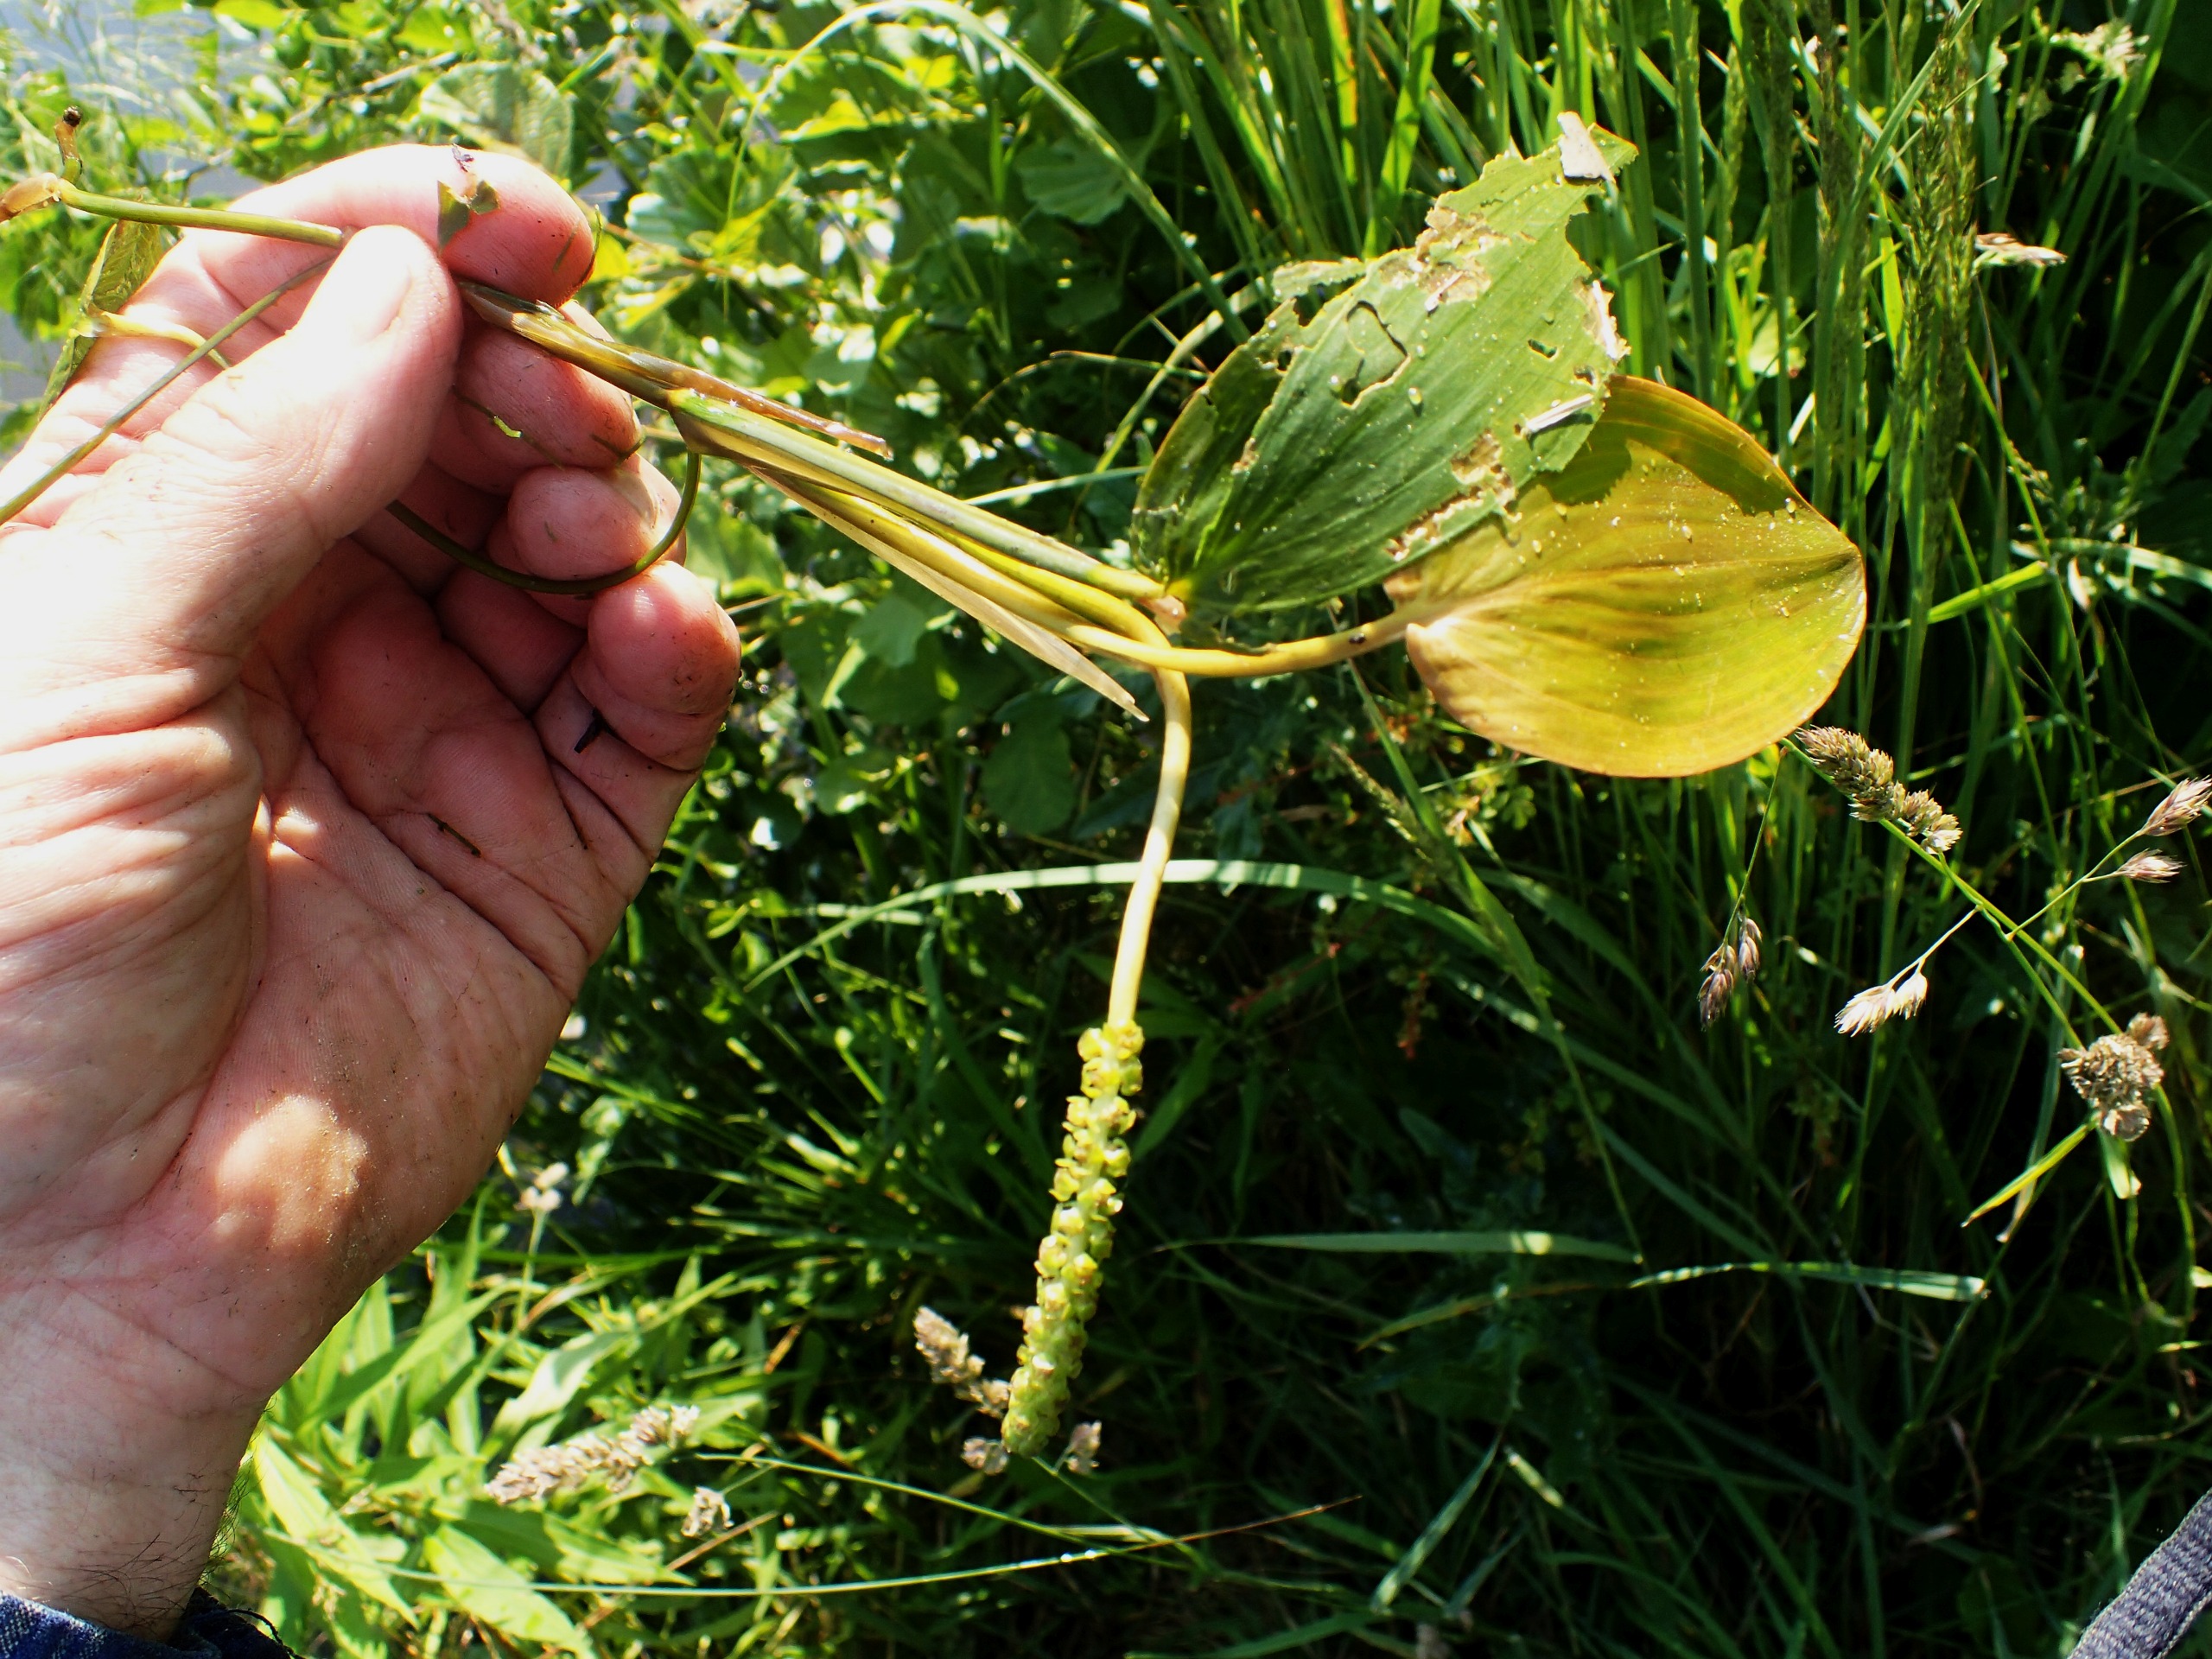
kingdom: Plantae
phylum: Tracheophyta
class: Liliopsida
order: Alismatales
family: Potamogetonaceae
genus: Potamogeton
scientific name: Potamogeton natans
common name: Svømmende vandaks
